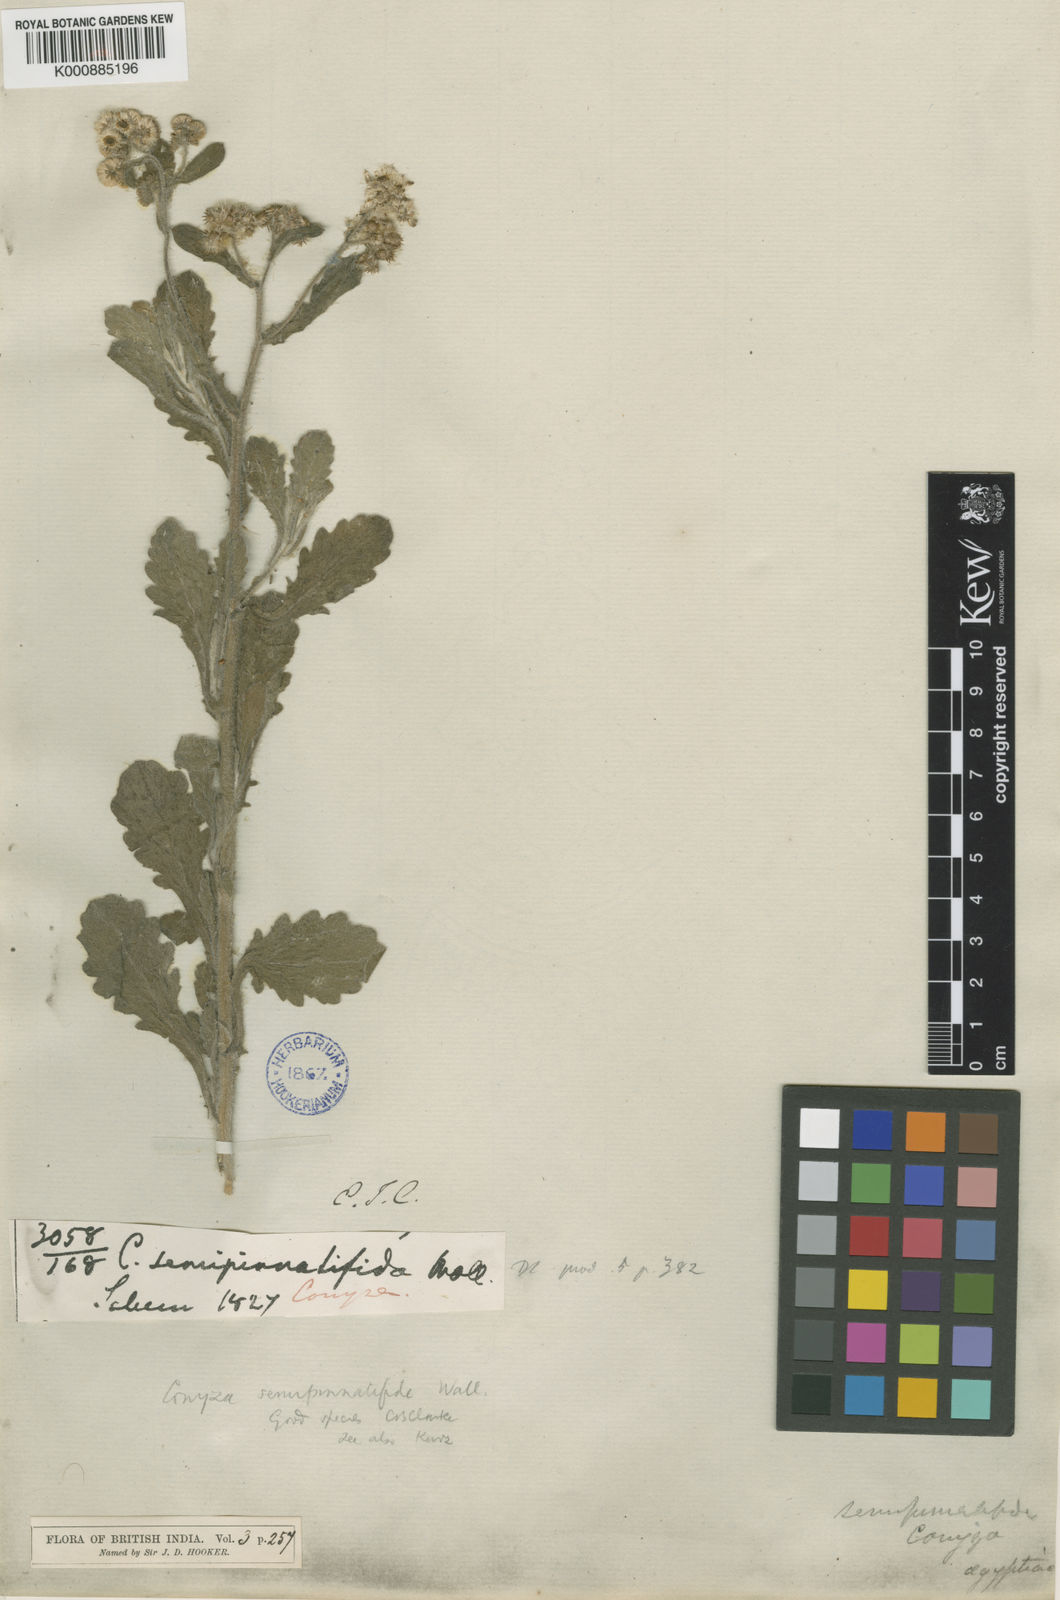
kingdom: Plantae
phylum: Tracheophyta
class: Magnoliopsida
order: Asterales
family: Asteraceae
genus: Conyza
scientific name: Conyza semipinnatifida
